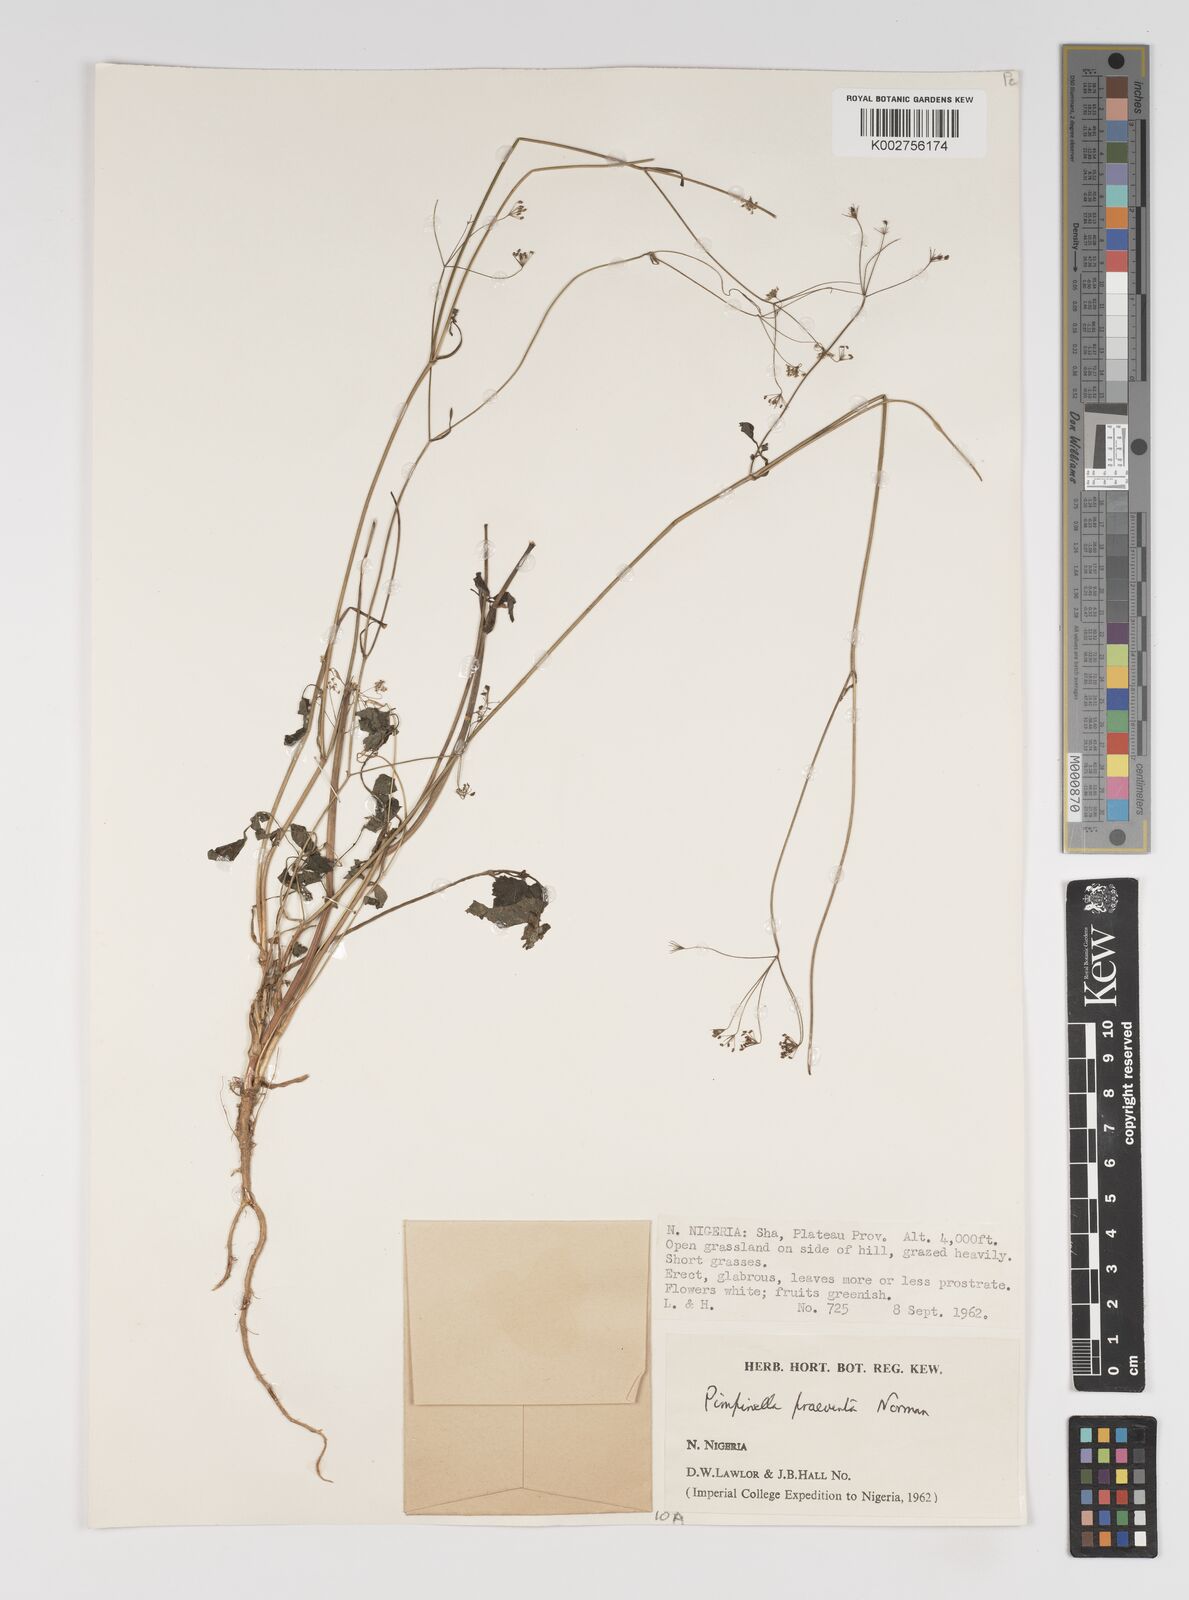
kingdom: Plantae
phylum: Tracheophyta
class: Magnoliopsida
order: Apiales
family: Apiaceae
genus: Pimpinella
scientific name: Pimpinella hirtella
